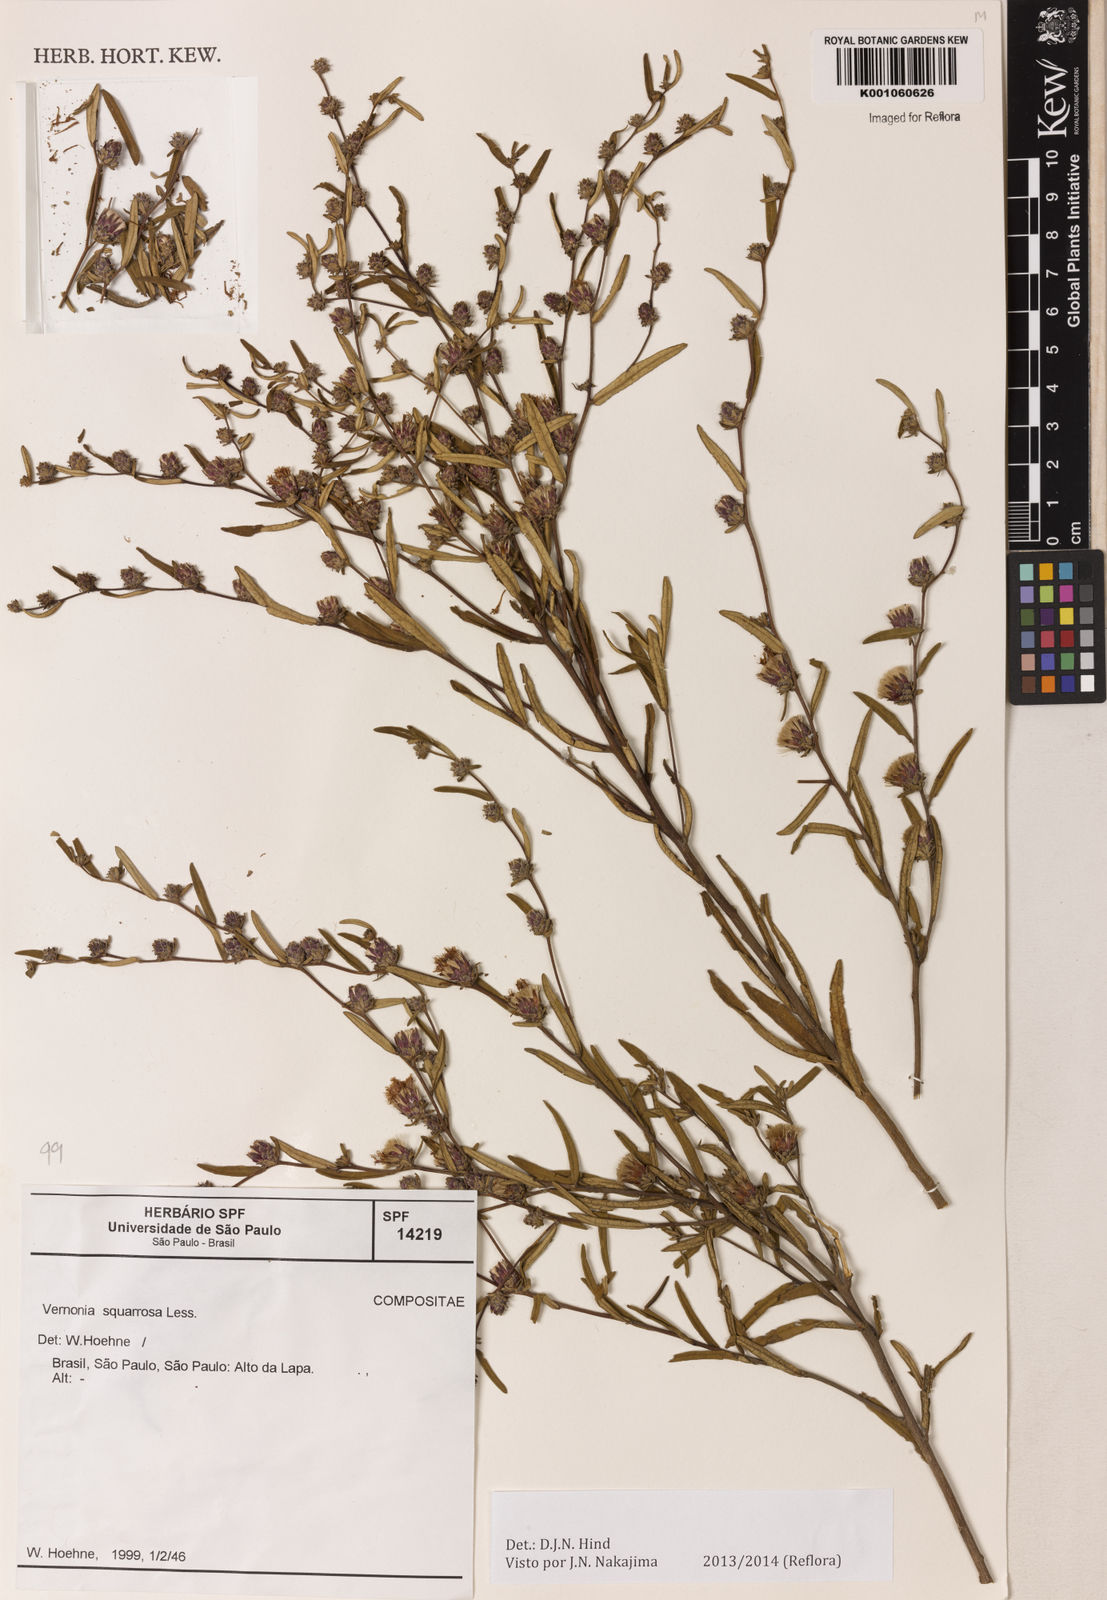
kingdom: Plantae
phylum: Tracheophyta
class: Magnoliopsida
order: Asterales
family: Asteraceae
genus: Lessingianthus
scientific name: Lessingianthus plantaginoides
